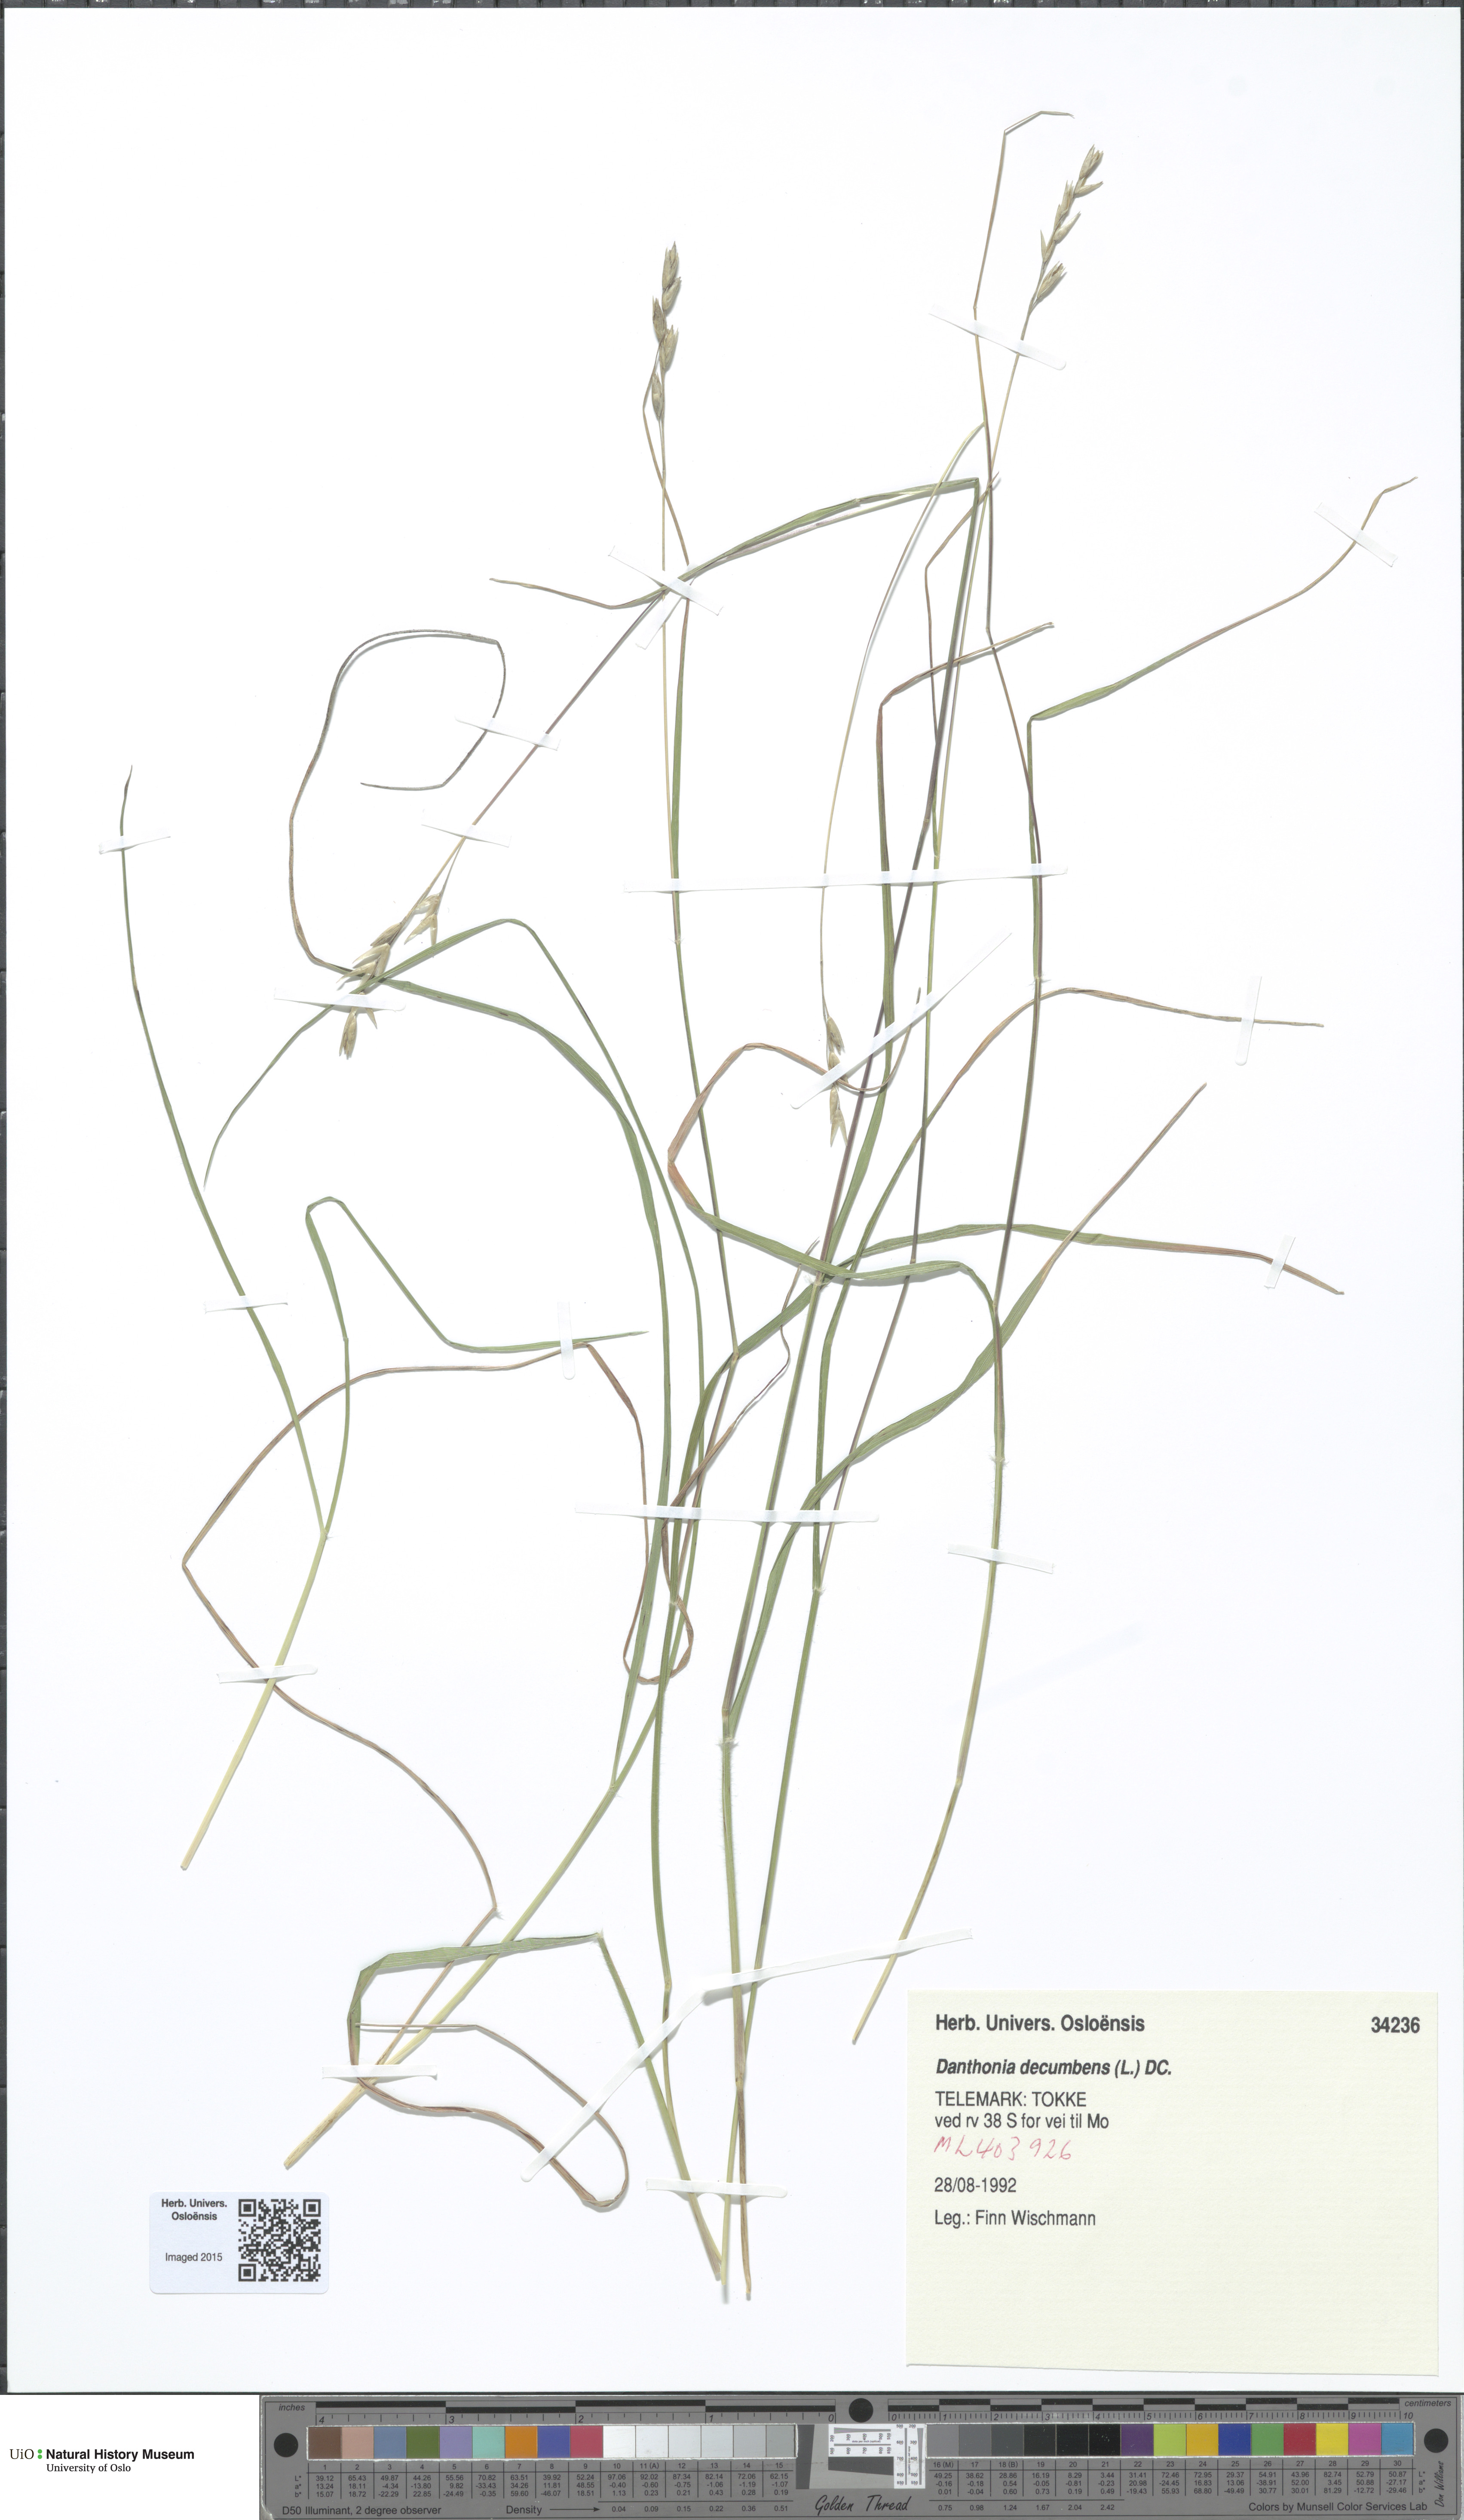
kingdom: Plantae
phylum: Tracheophyta
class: Liliopsida
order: Poales
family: Poaceae
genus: Danthonia
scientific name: Danthonia decumbens
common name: Common heathgrass
